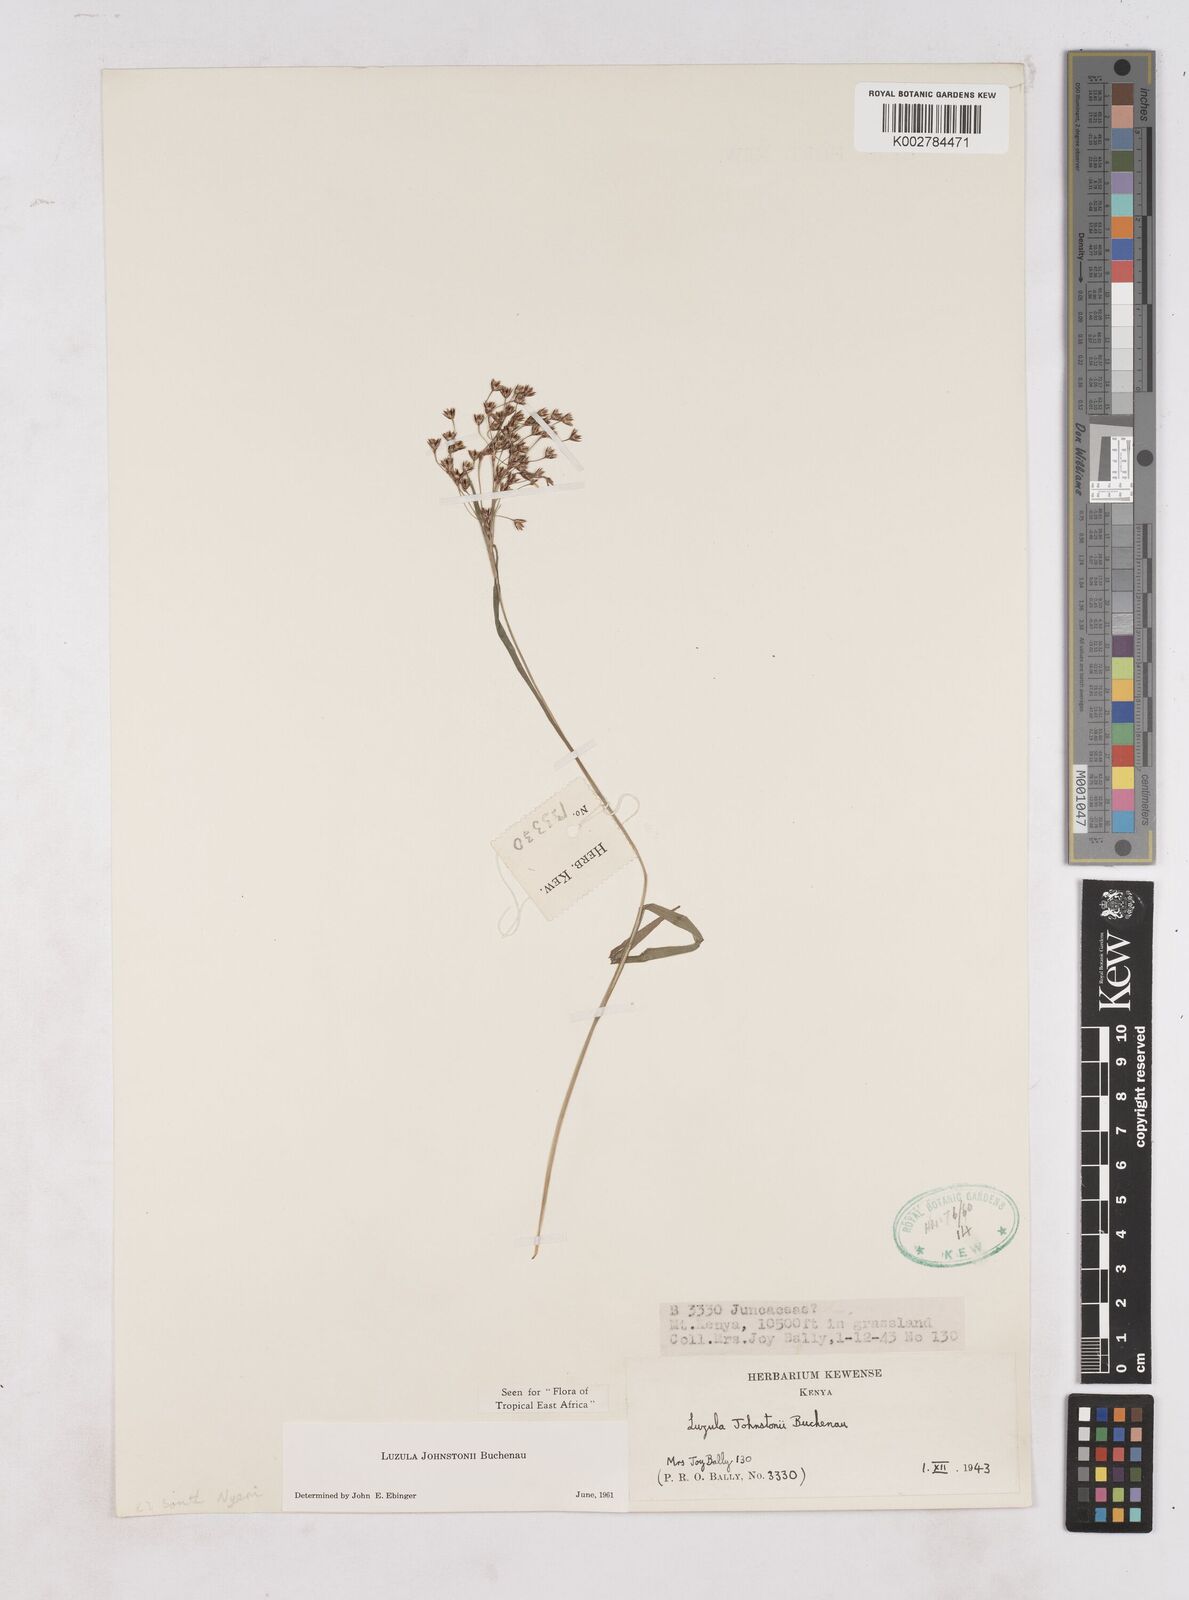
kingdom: Plantae
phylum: Tracheophyta
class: Liliopsida
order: Poales
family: Juncaceae
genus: Luzula
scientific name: Luzula johnstonii
